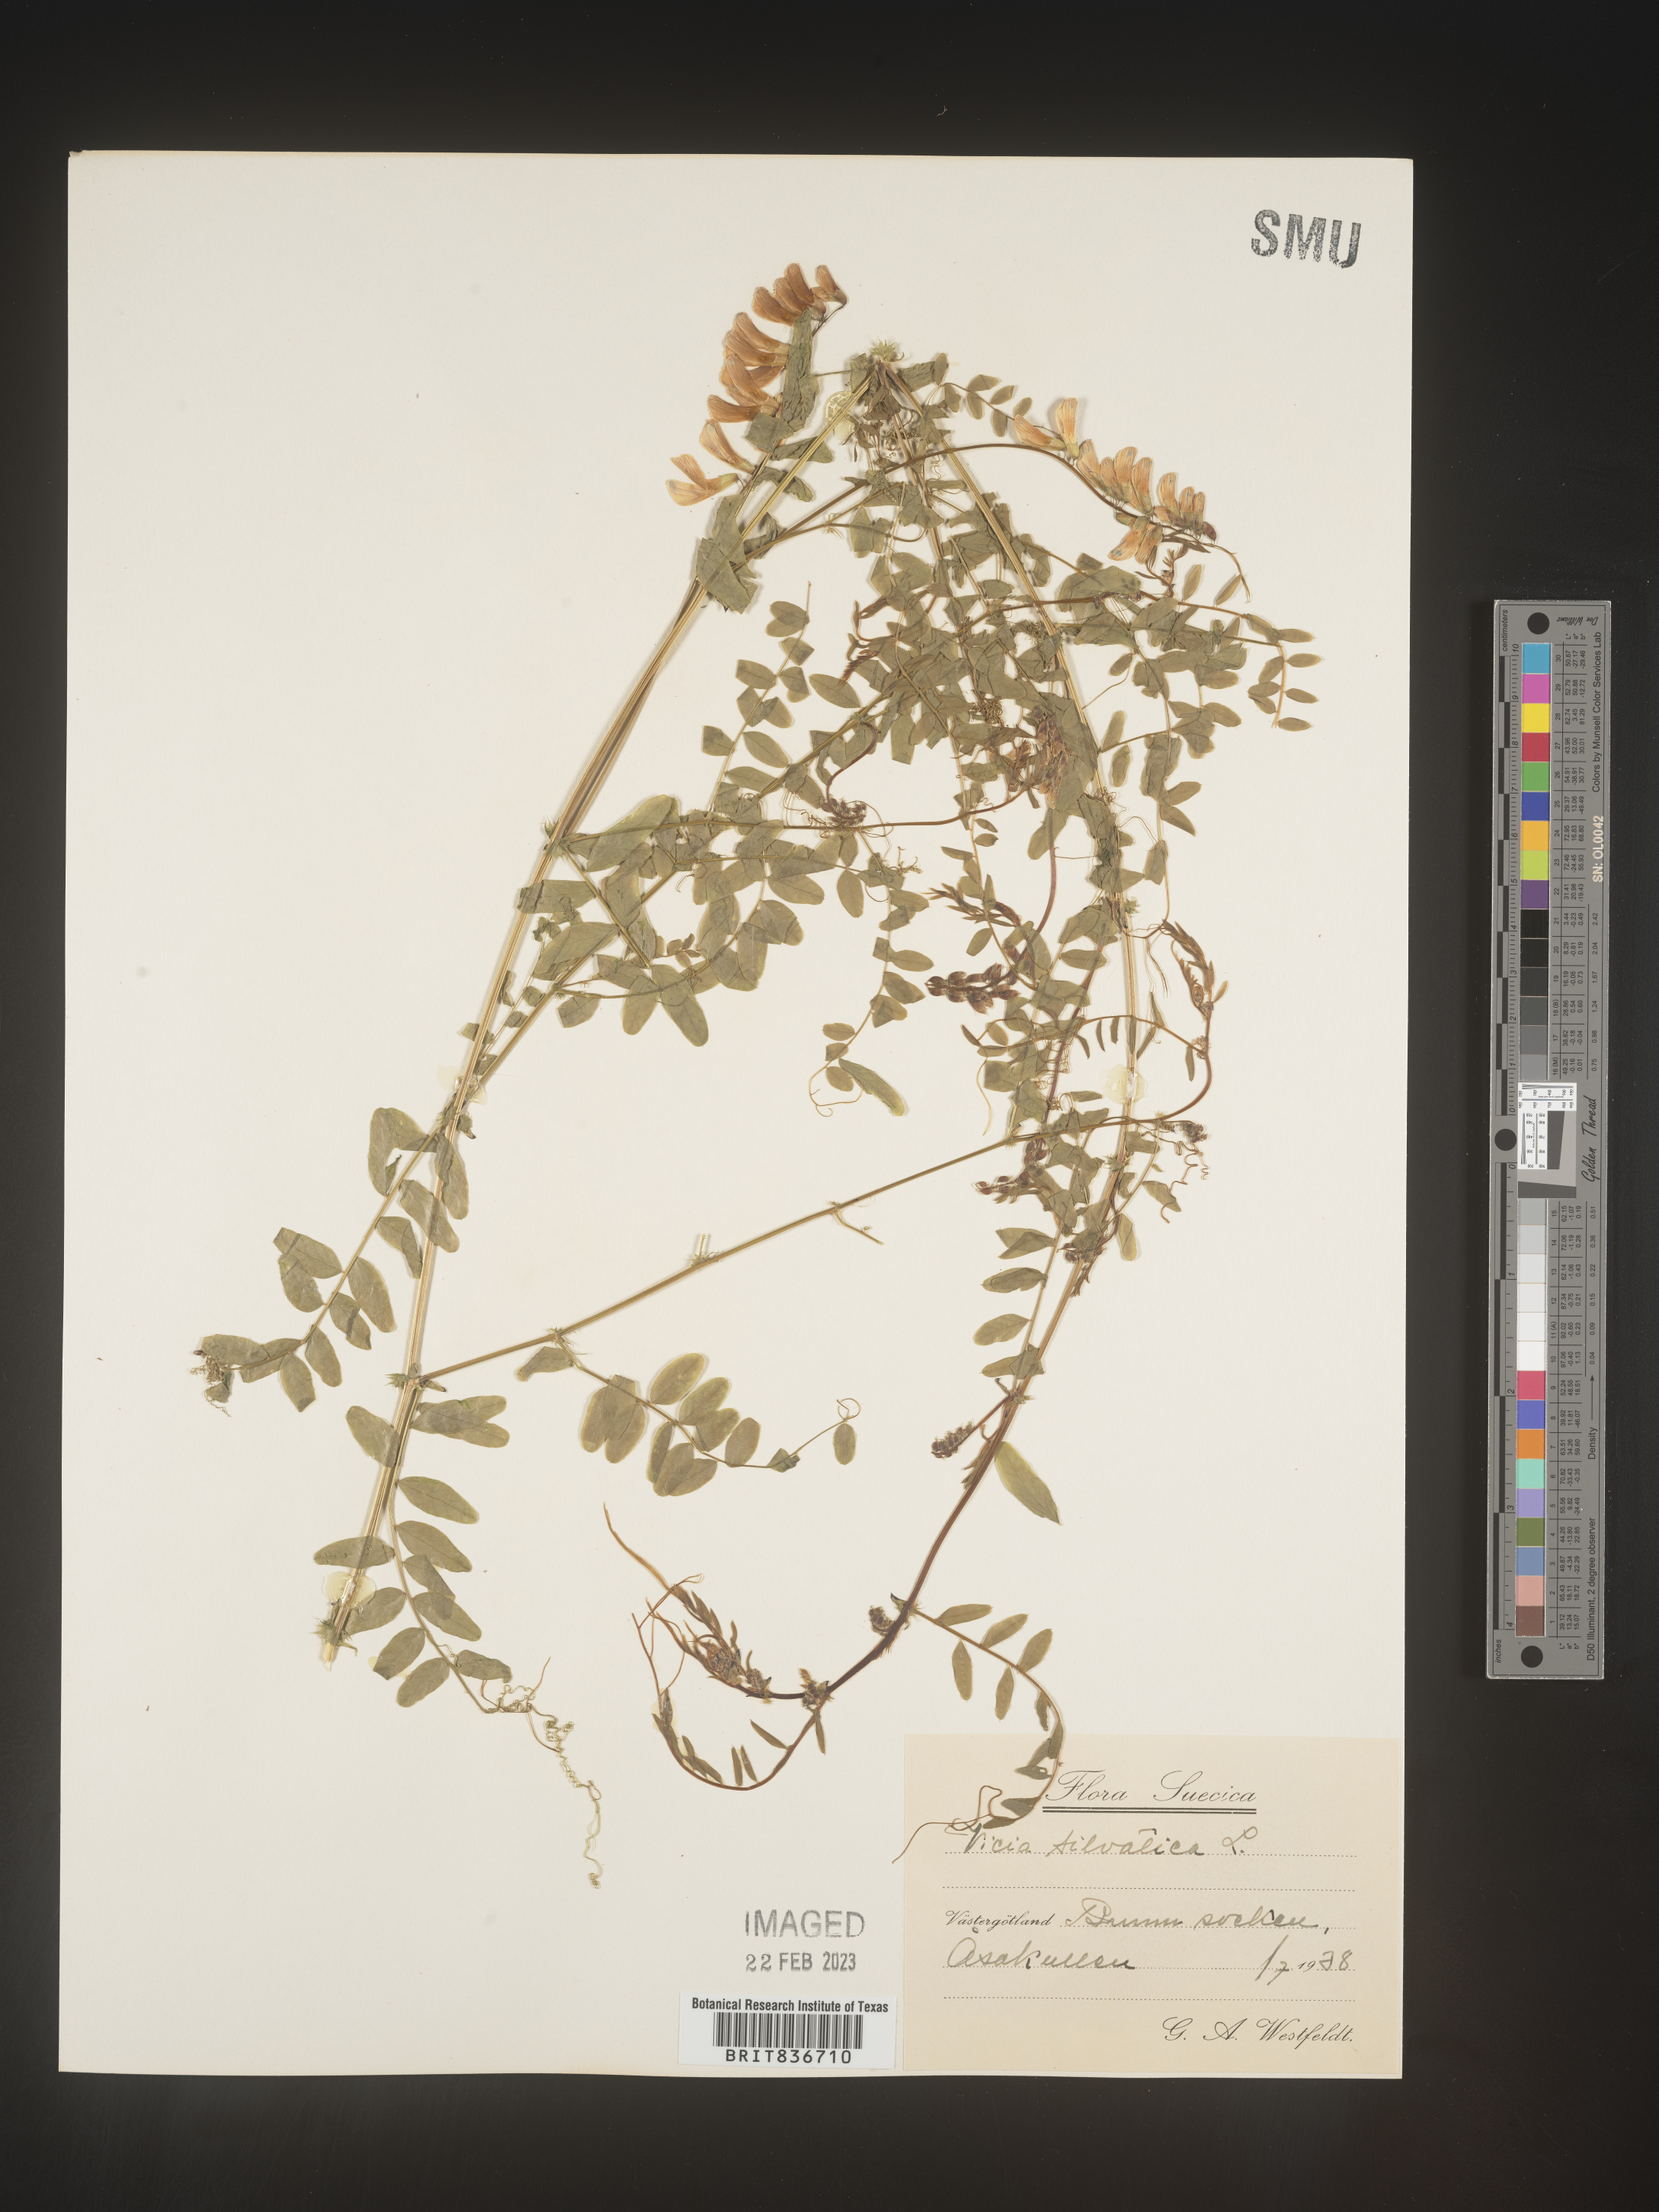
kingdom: Plantae
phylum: Tracheophyta
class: Magnoliopsida
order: Fabales
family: Fabaceae
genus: Vicia
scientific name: Vicia sylvatica
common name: Wood vetch
